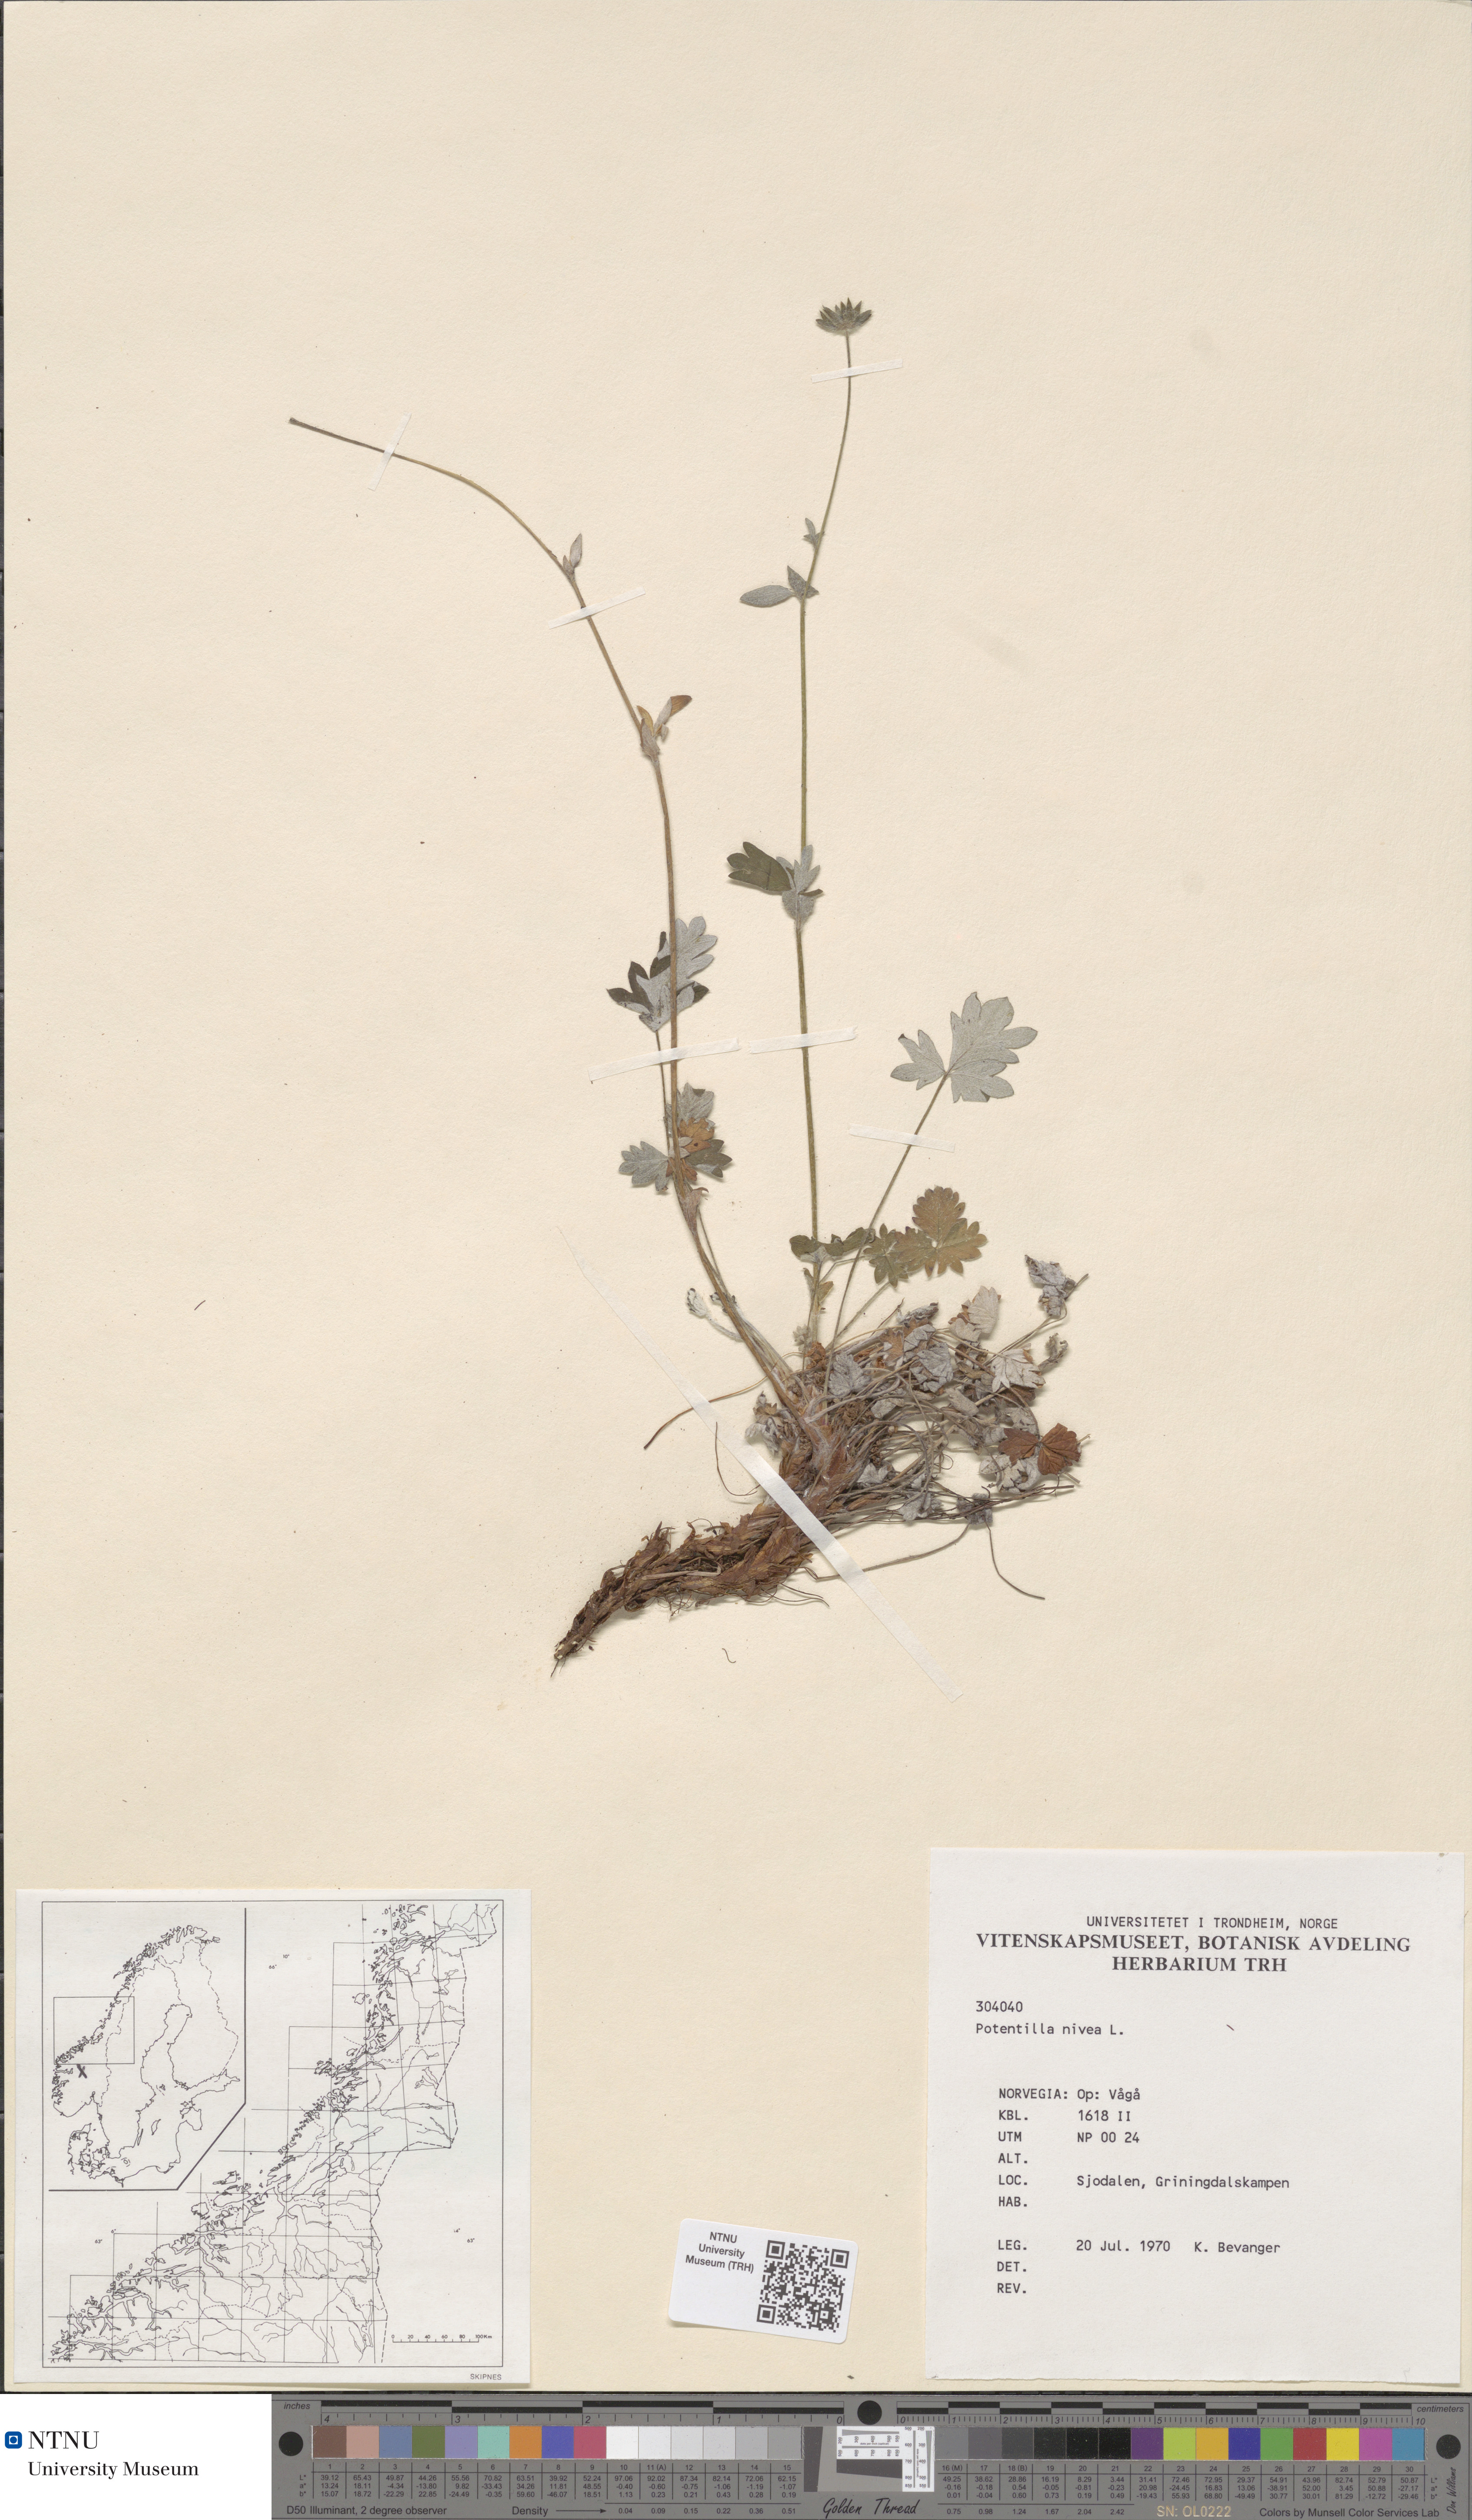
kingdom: Plantae
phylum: Tracheophyta
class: Magnoliopsida
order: Rosales
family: Rosaceae
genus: Potentilla
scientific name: Potentilla nivea
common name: Snow cinquefoil
